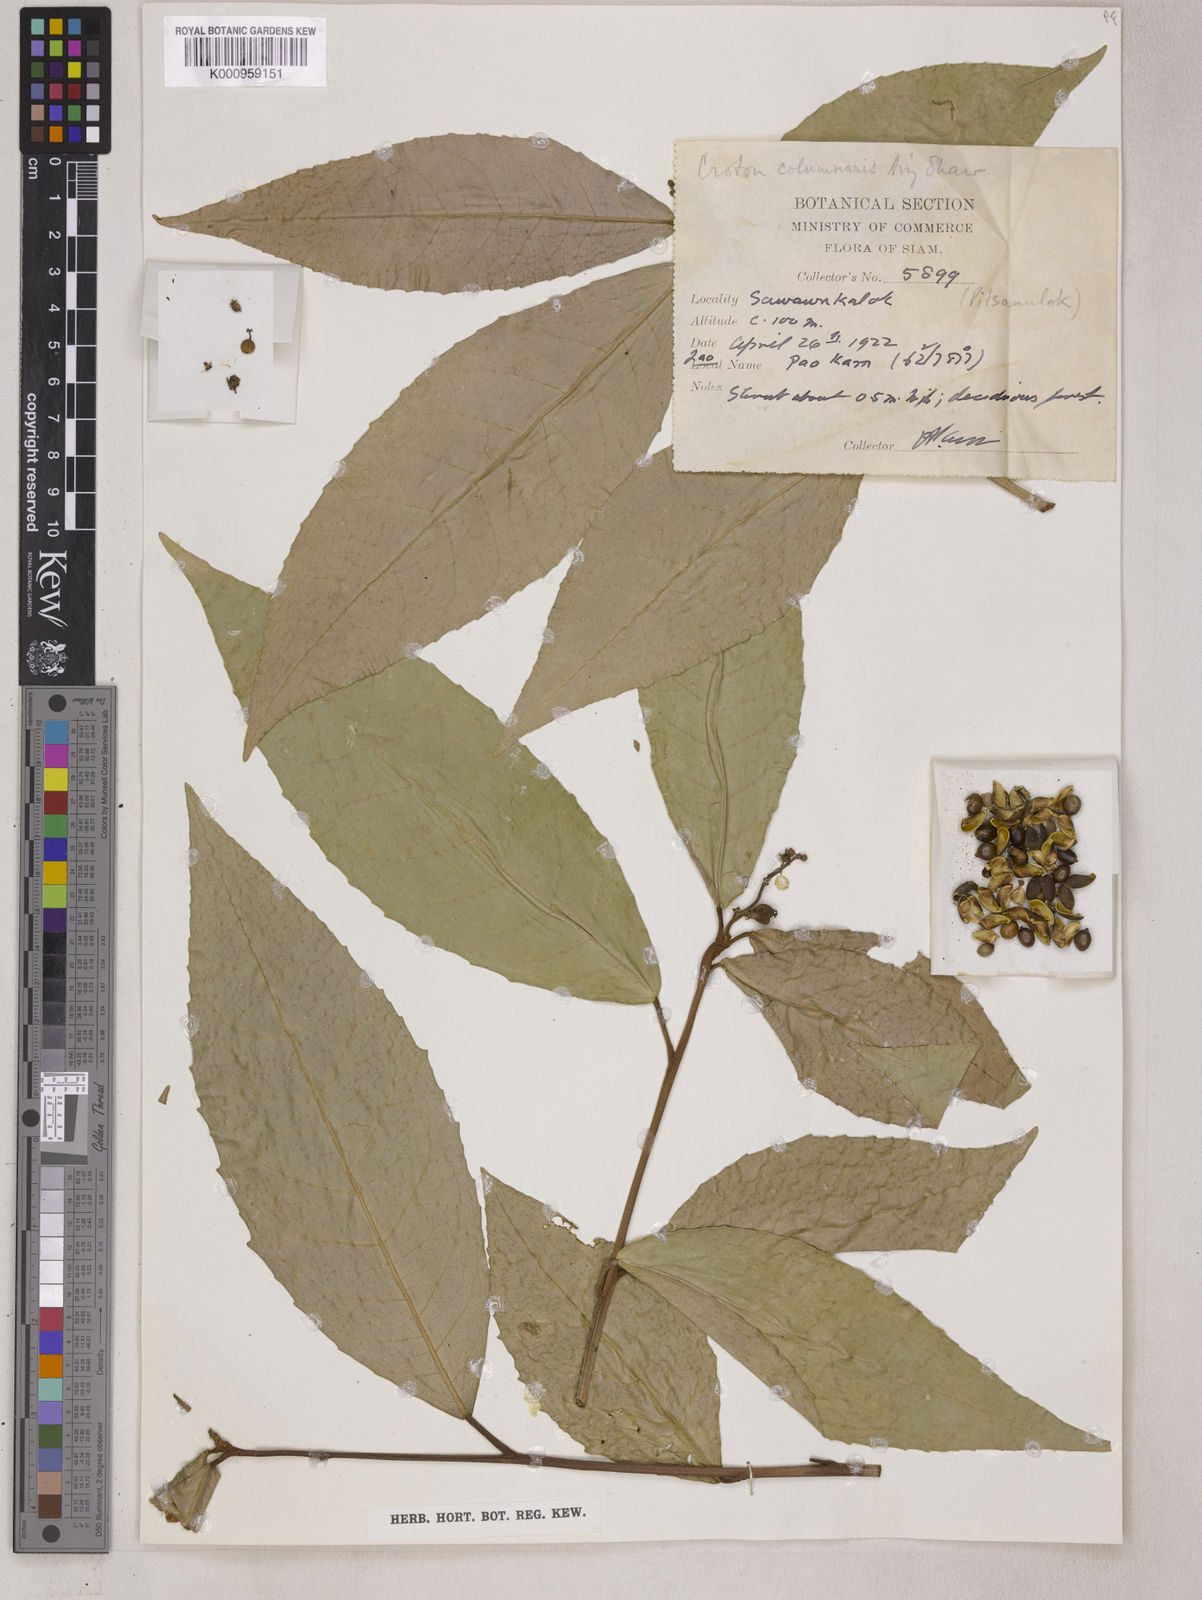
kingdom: Plantae
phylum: Tracheophyta
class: Magnoliopsida
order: Malpighiales
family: Euphorbiaceae
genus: Croton
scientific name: Croton columnaris
